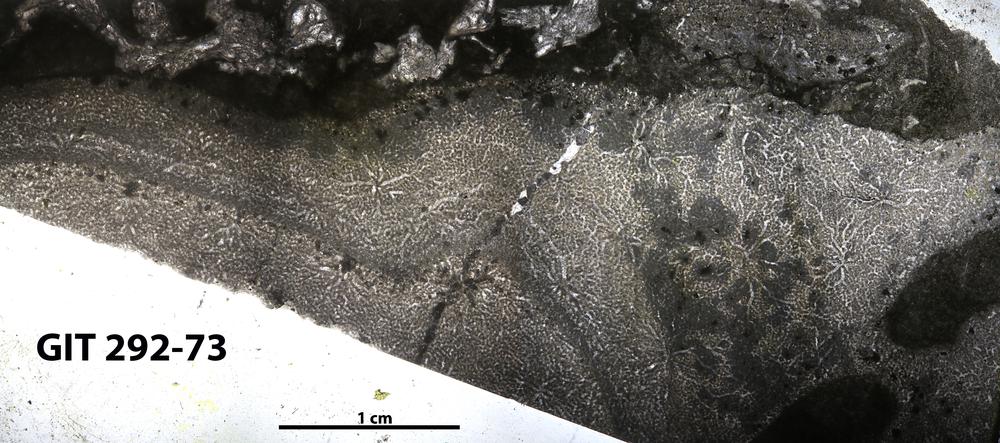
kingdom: Animalia
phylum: Porifera
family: Stromatoporidae
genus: Stromatopora
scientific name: Stromatopora
